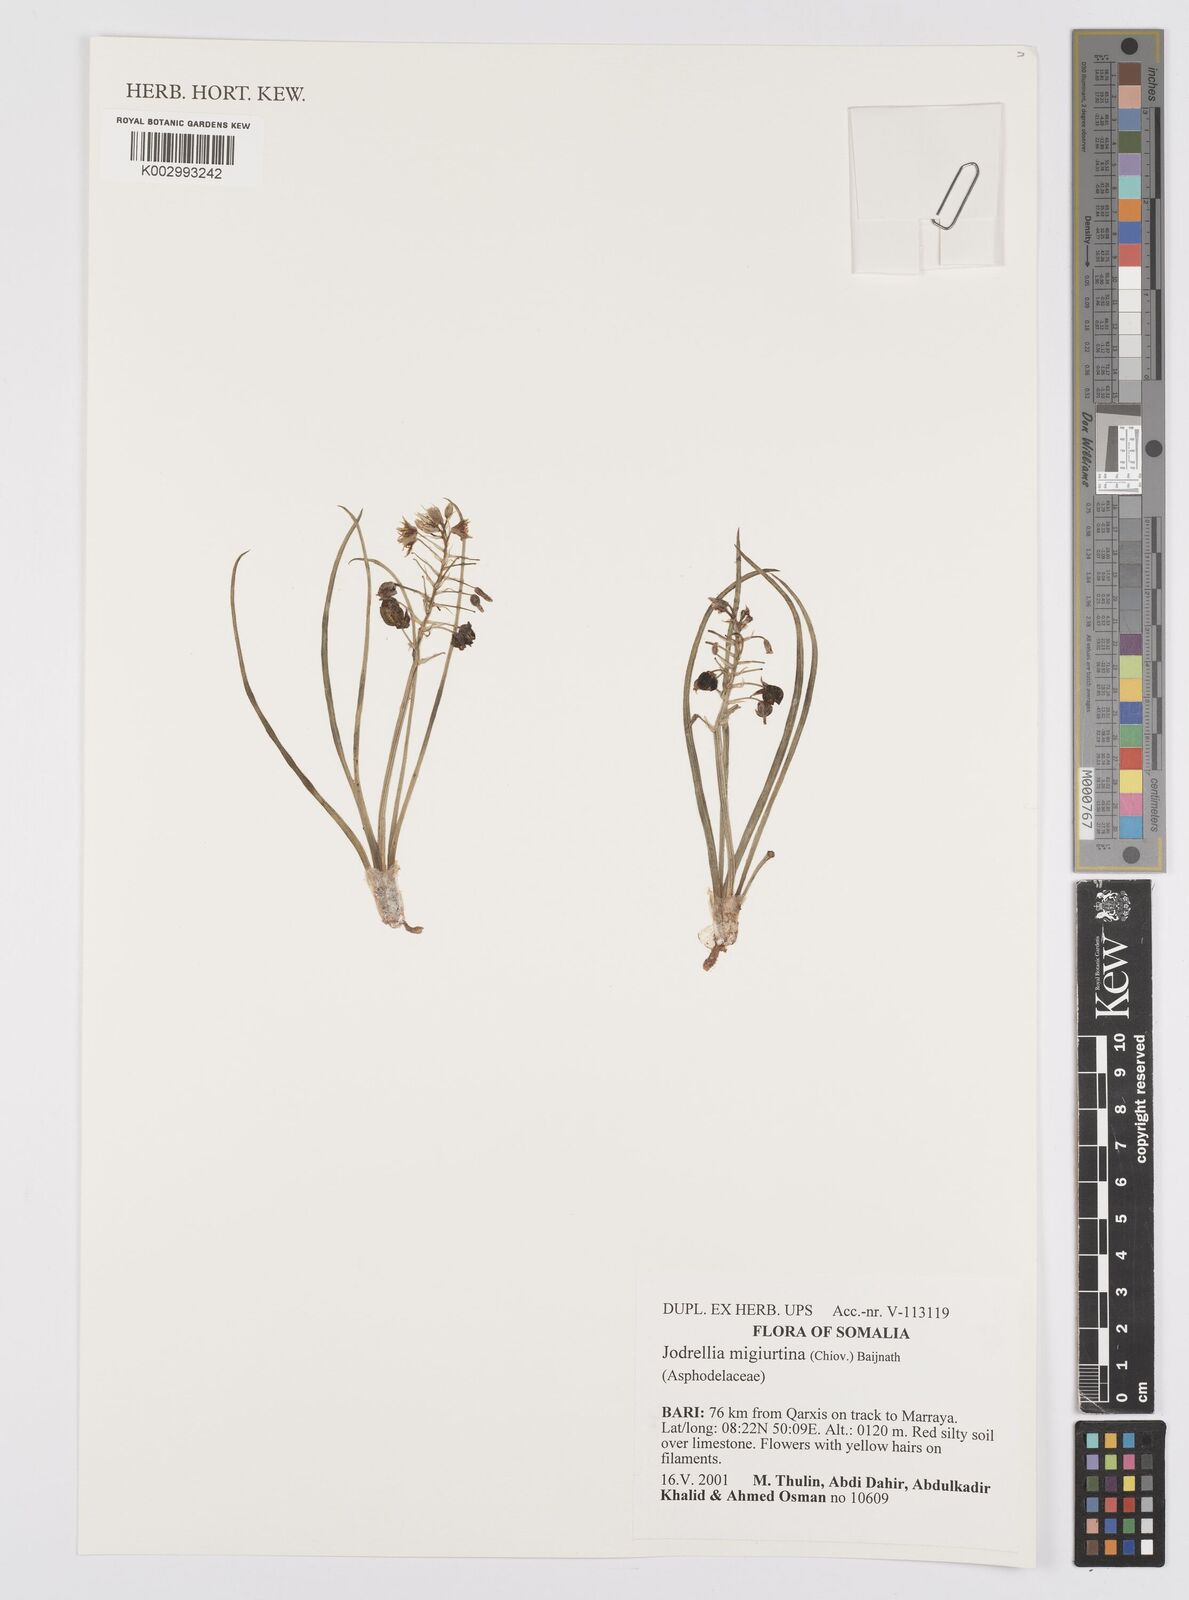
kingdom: Plantae
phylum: Tracheophyta
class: Liliopsida
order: Asparagales
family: Asphodelaceae
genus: Bulbine
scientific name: Bulbine migiurtina
